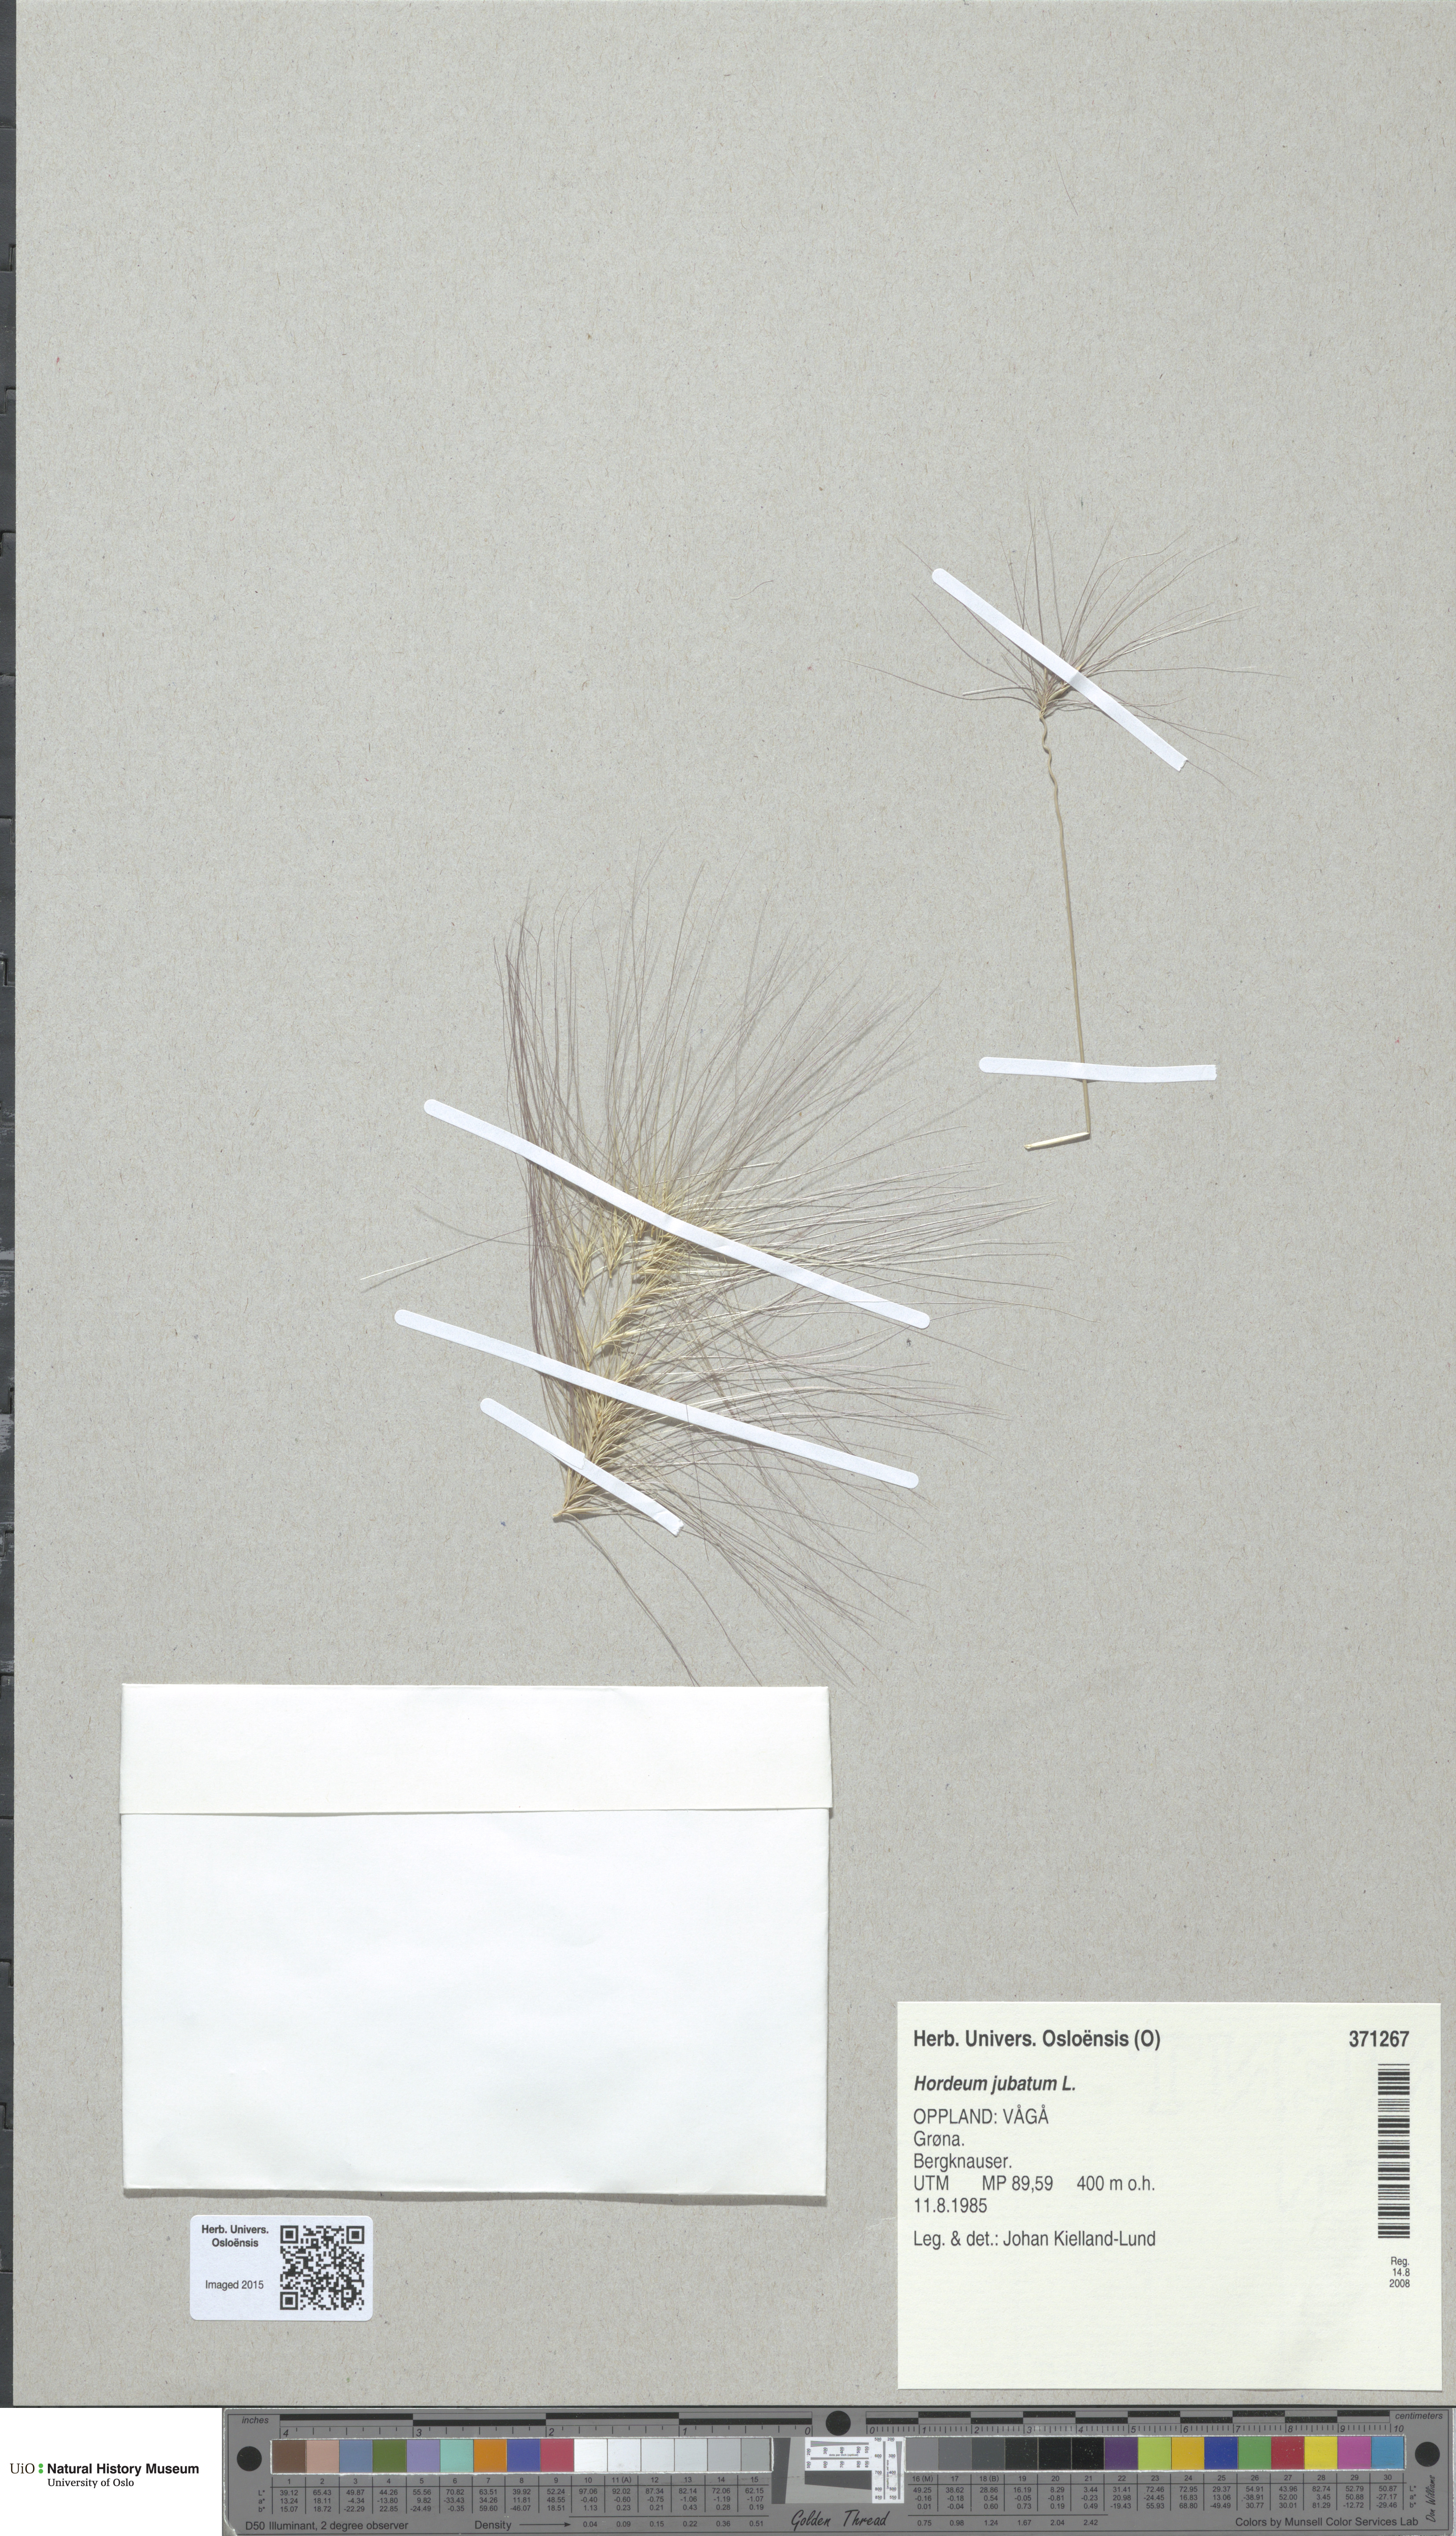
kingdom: Plantae
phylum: Tracheophyta
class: Liliopsida
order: Poales
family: Poaceae
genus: Hordeum
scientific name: Hordeum jubatum
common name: Foxtail barley
